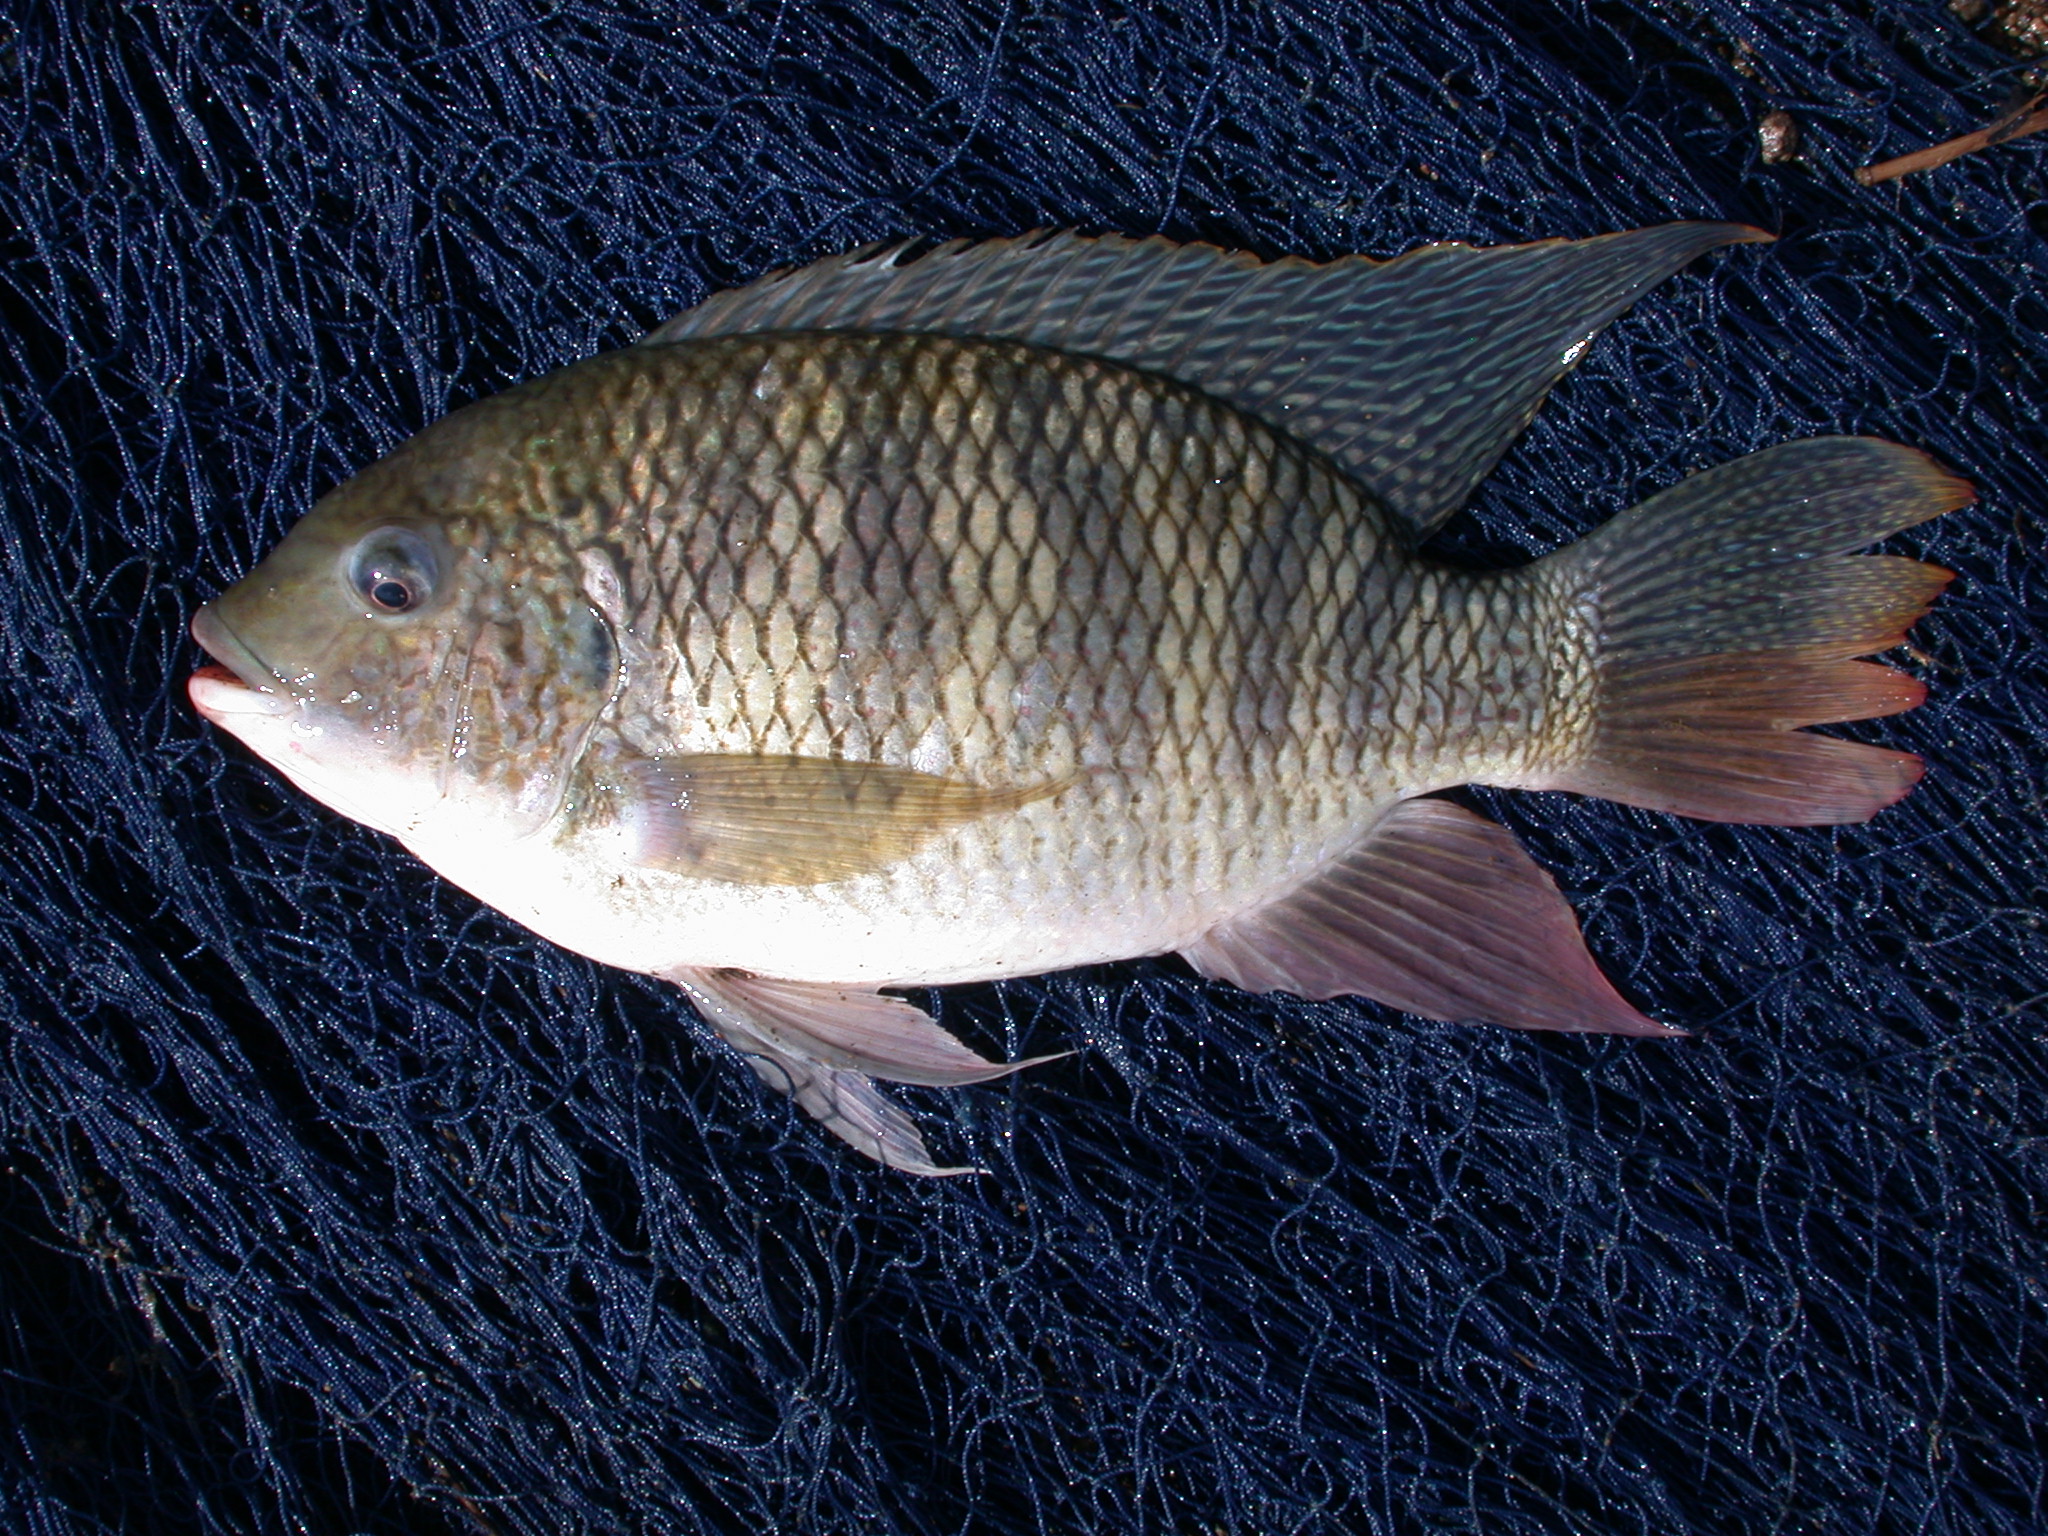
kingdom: Animalia
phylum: Chordata
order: Perciformes
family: Cichlidae
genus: Coptodon
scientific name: Coptodon rendalli
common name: Redbreast tilapia
